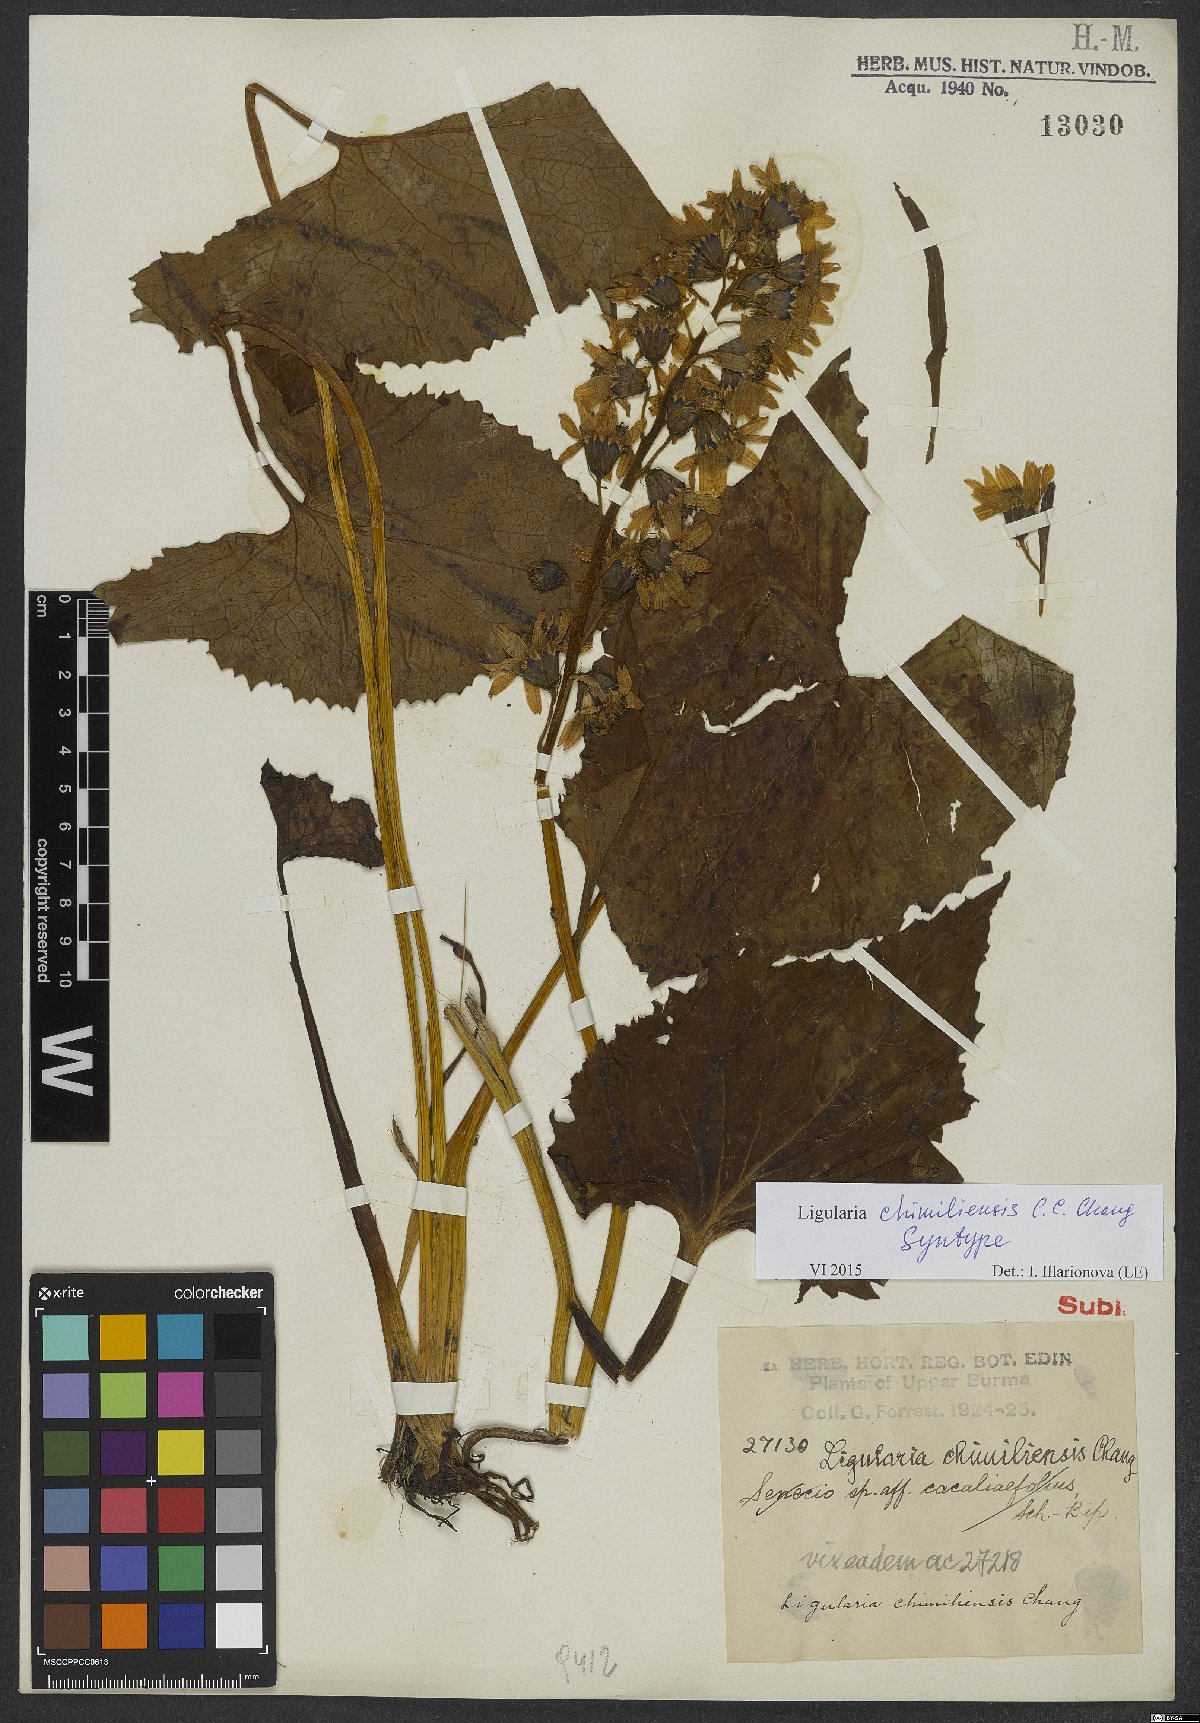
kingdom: Plantae
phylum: Tracheophyta
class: Magnoliopsida
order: Asterales
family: Asteraceae
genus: Ligularia
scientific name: Ligularia chimiliensis
